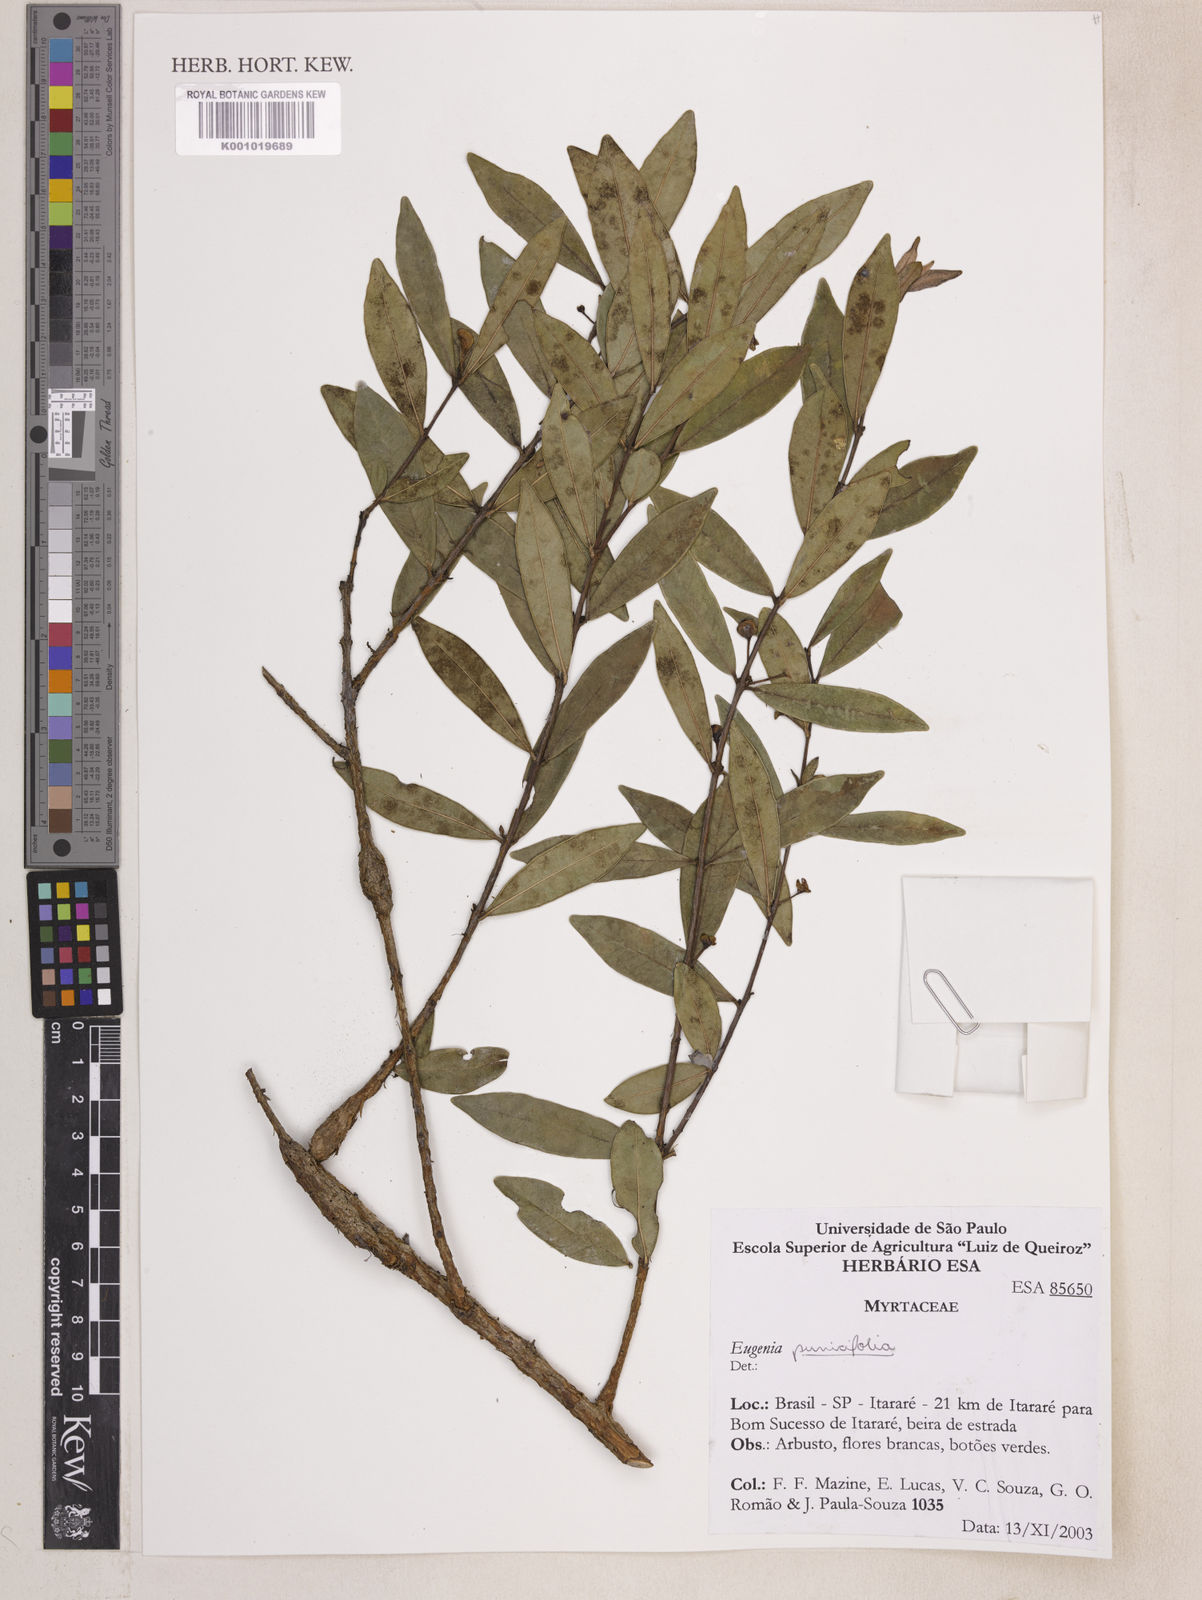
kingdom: Plantae
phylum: Tracheophyta
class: Magnoliopsida
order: Myrtales
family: Myrtaceae
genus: Eugenia
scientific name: Eugenia punicifolia
